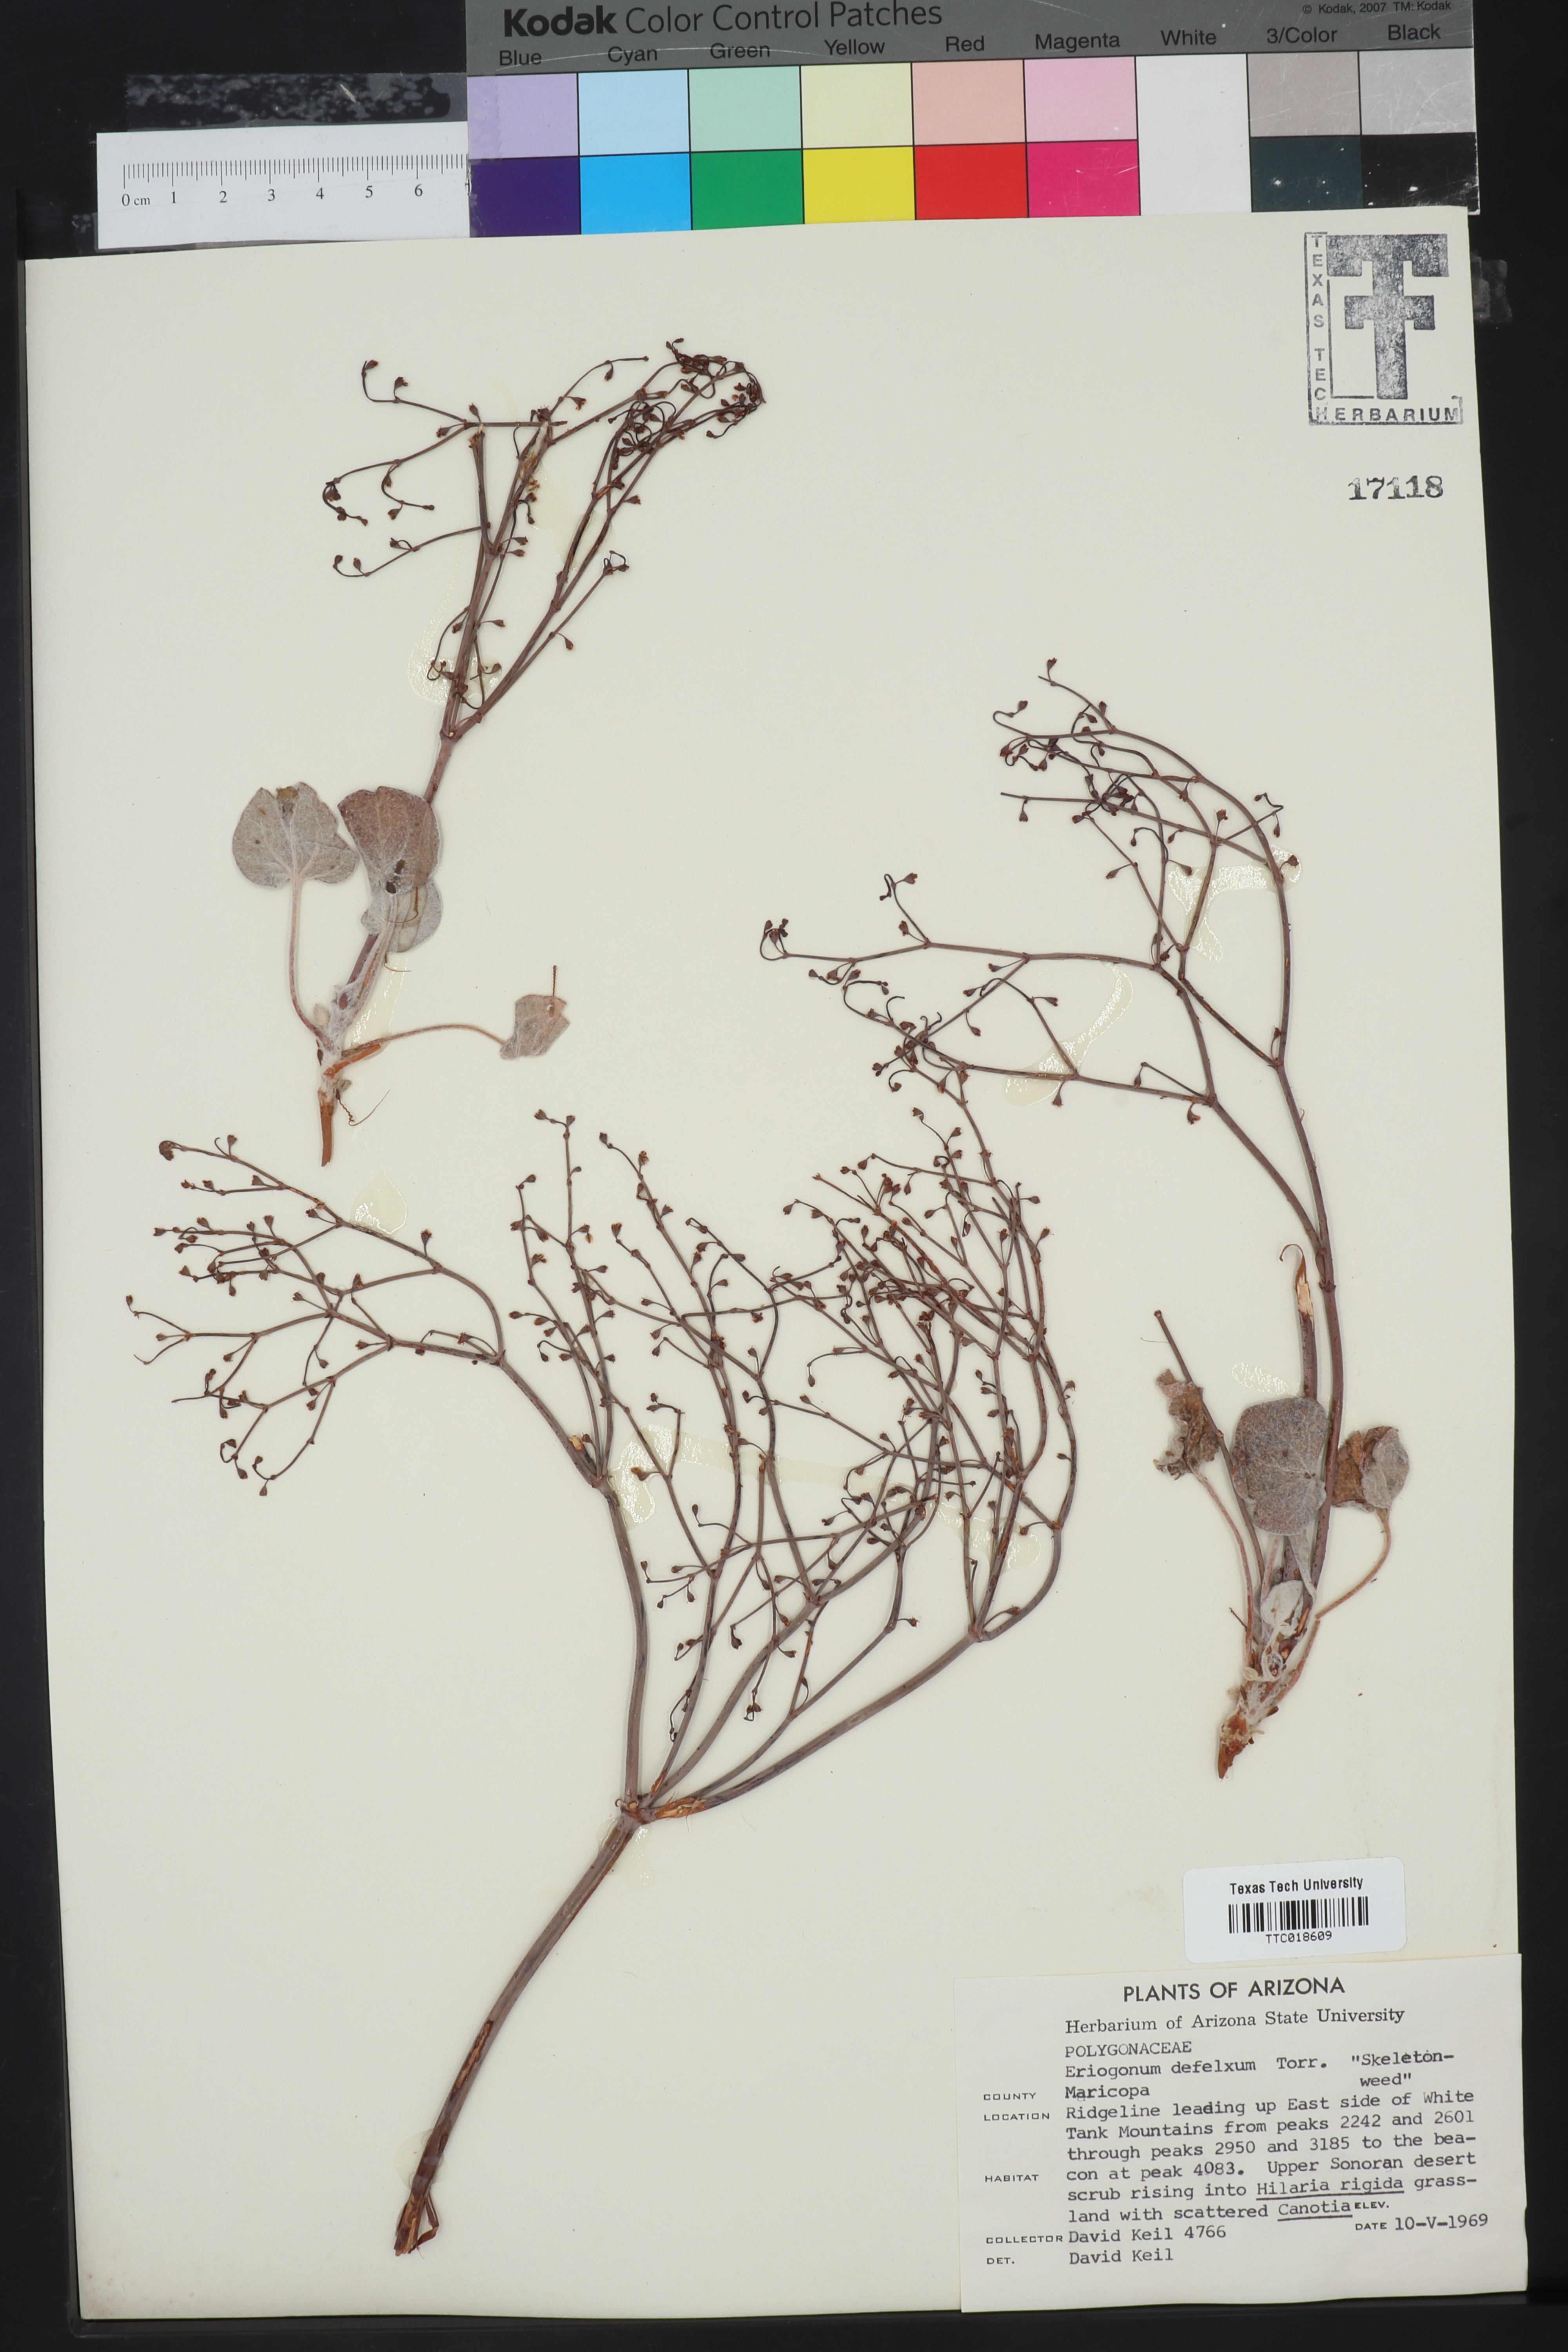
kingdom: Plantae
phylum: Tracheophyta
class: Magnoliopsida
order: Caryophyllales
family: Polygonaceae
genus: Eriogonum
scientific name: Eriogonum
